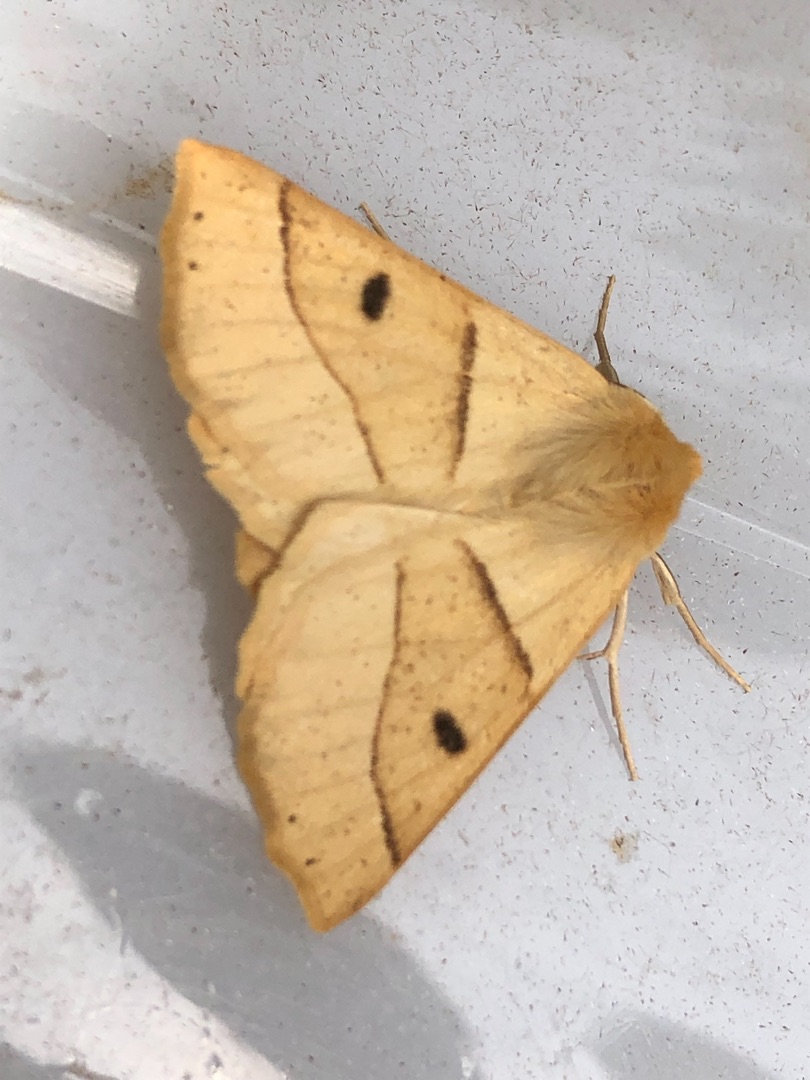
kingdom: Animalia
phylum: Arthropoda
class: Insecta
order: Lepidoptera
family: Geometridae
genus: Crocallis
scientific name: Crocallis elinguaria
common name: Okkergul rovmåler
